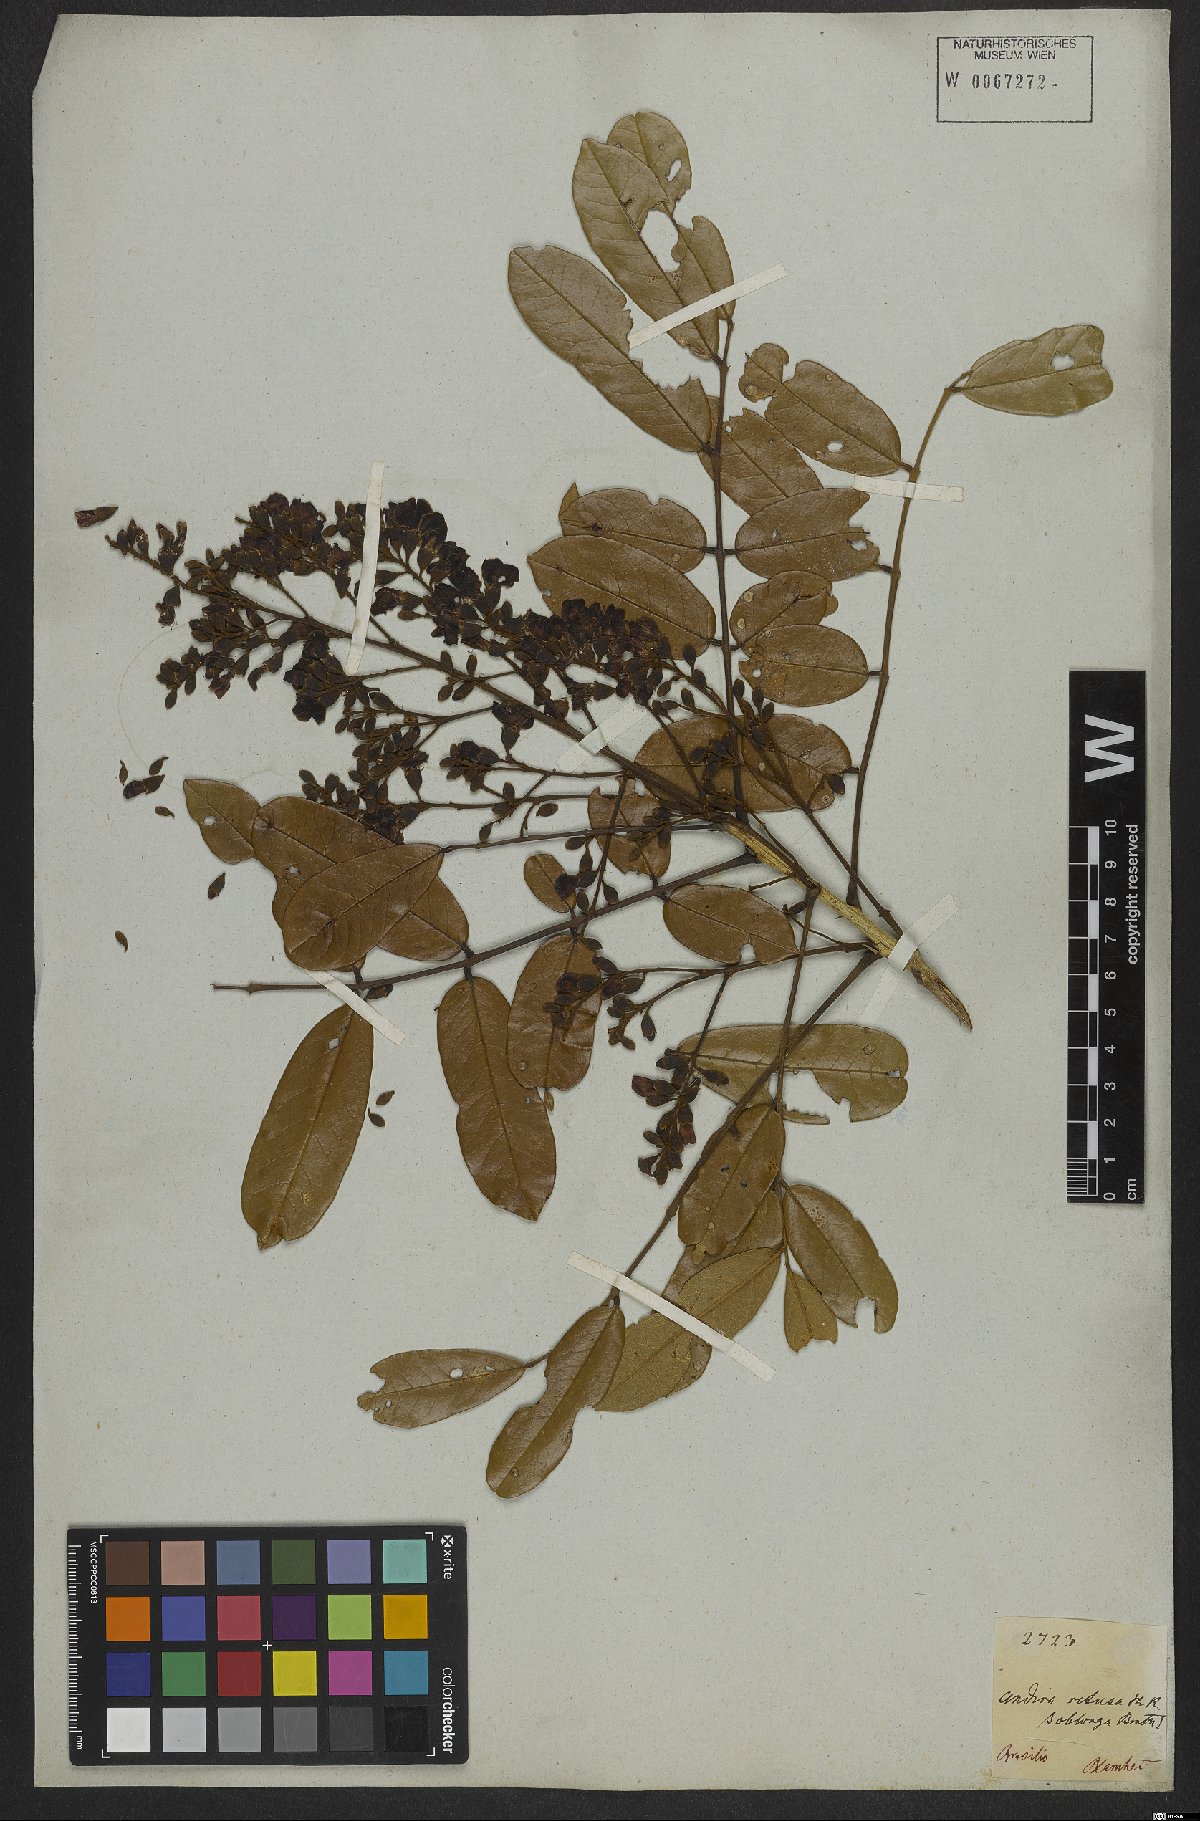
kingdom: Plantae
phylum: Tracheophyta
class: Magnoliopsida
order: Fabales
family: Fabaceae
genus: Andira
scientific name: Andira surinamensis
